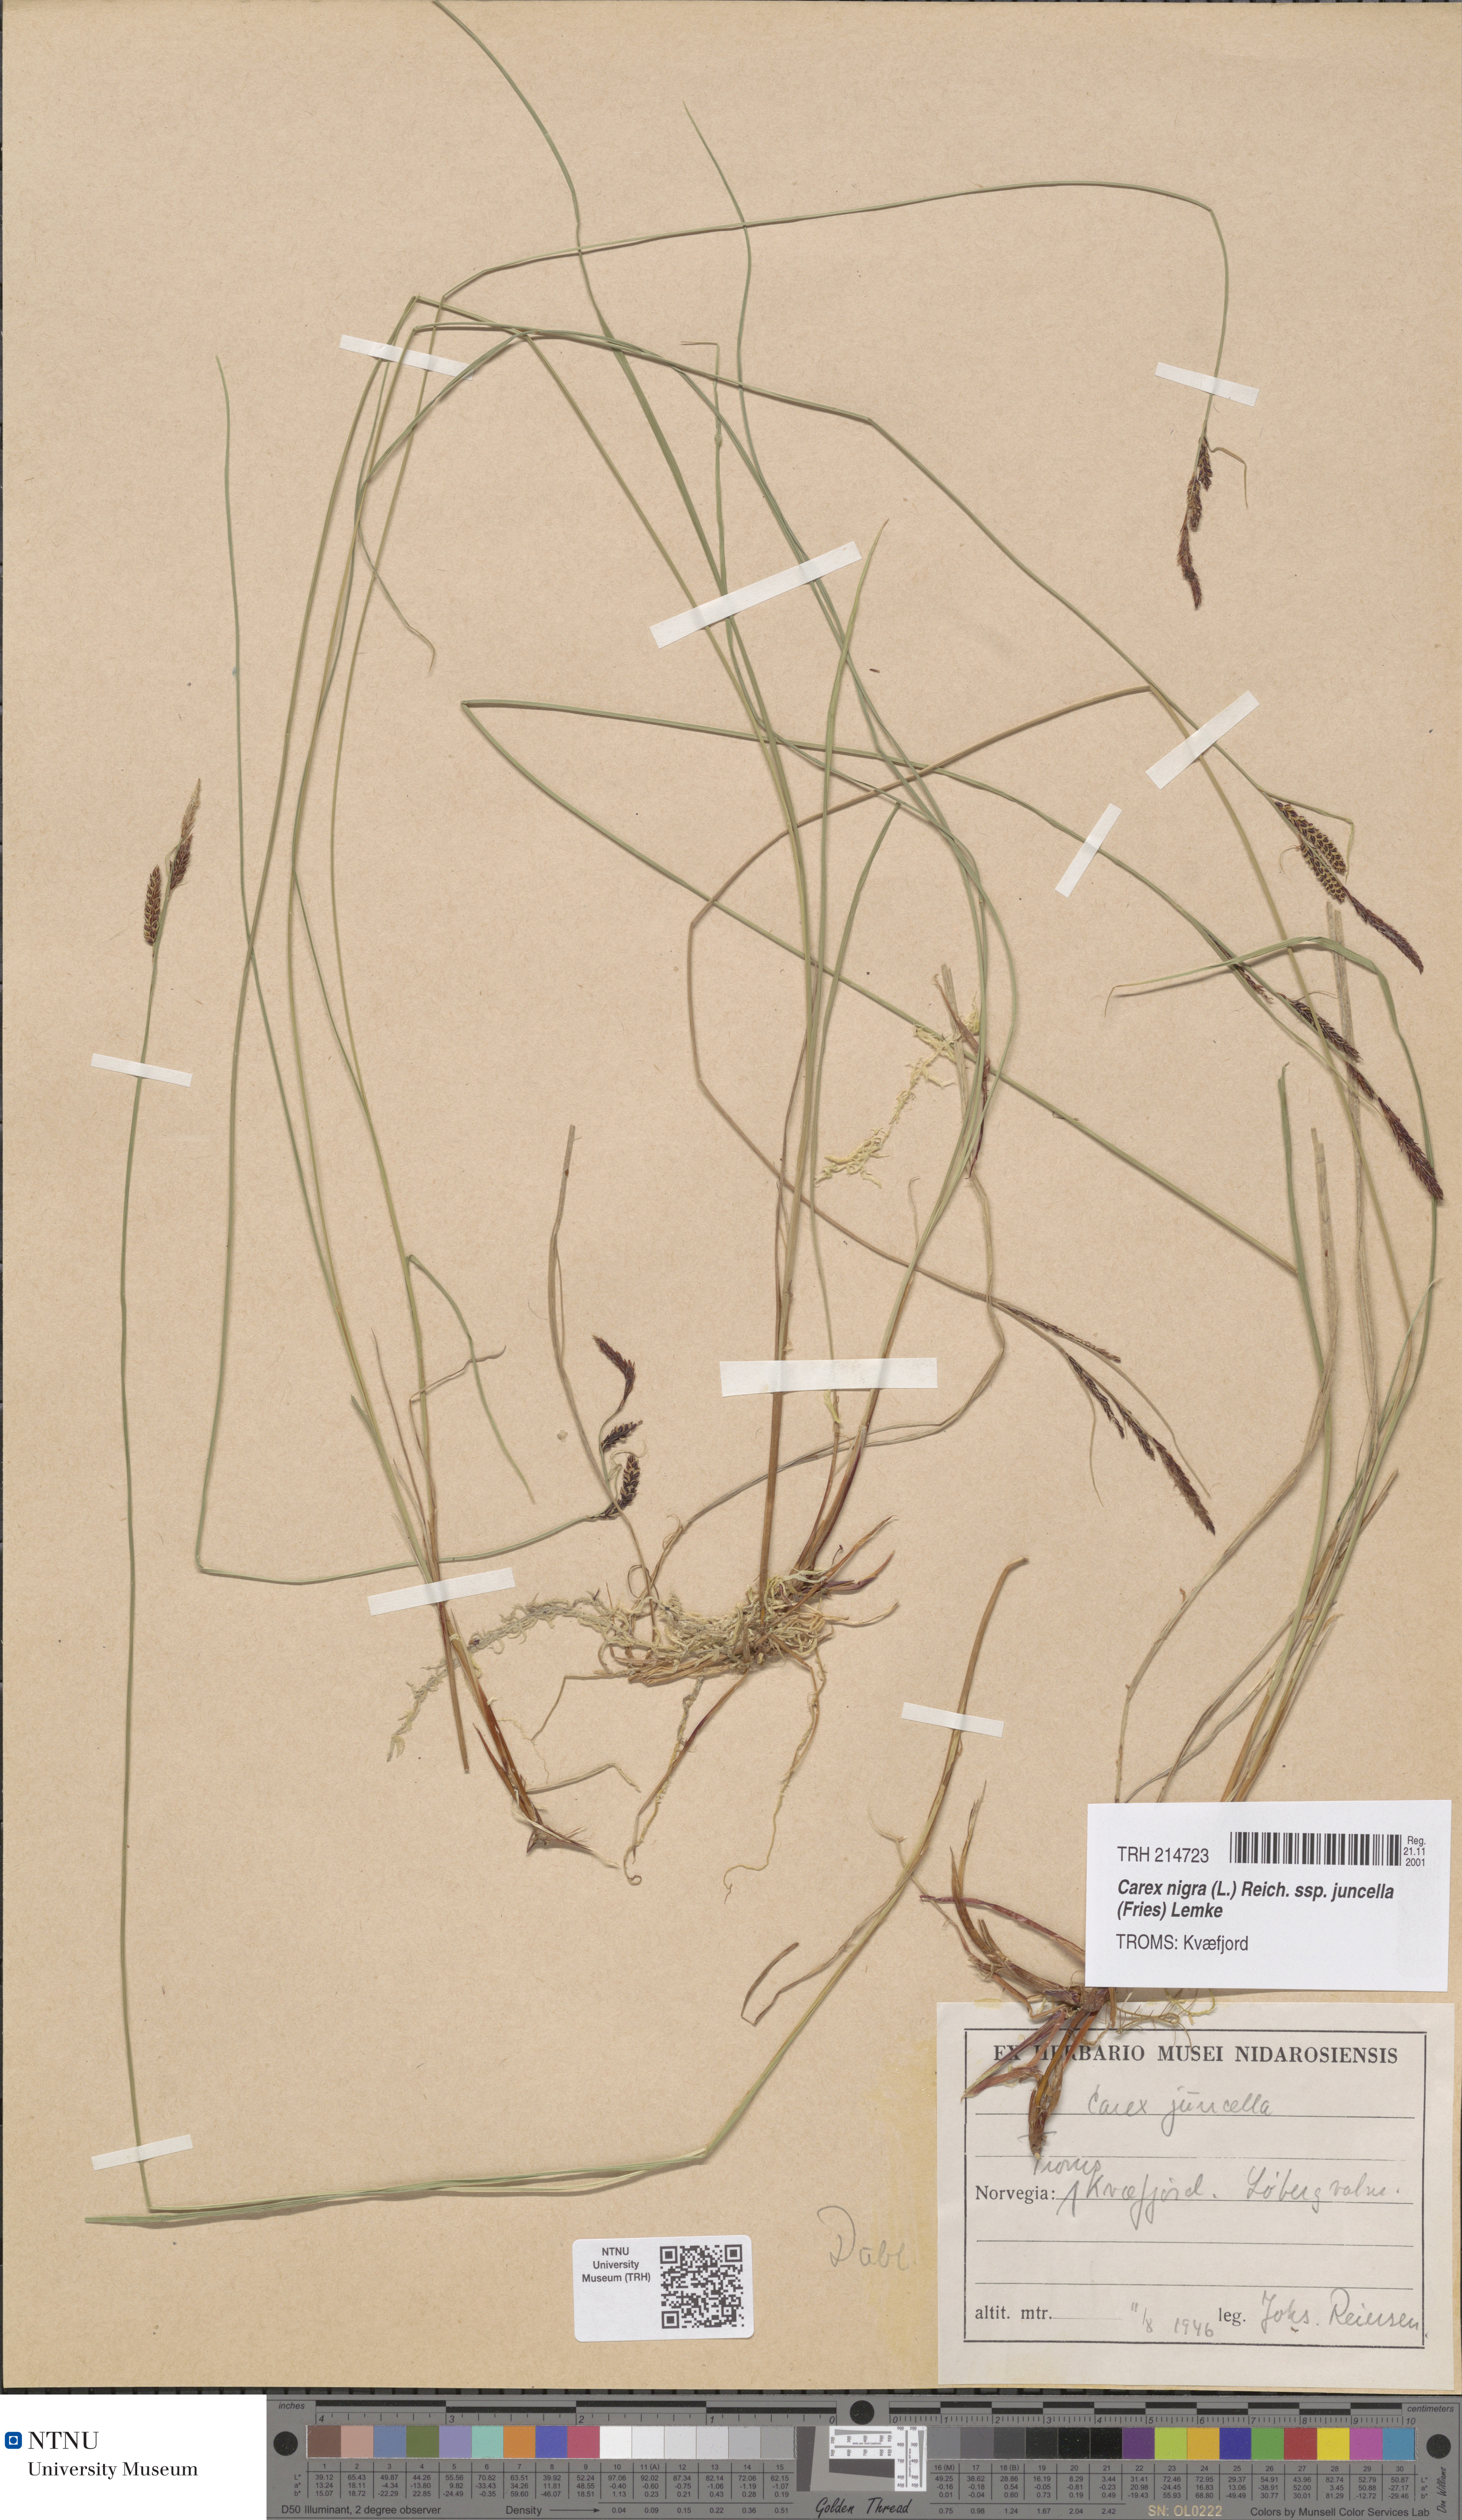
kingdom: Plantae
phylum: Tracheophyta
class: Liliopsida
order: Poales
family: Cyperaceae
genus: Carex
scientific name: Carex nigra
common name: Common sedge
